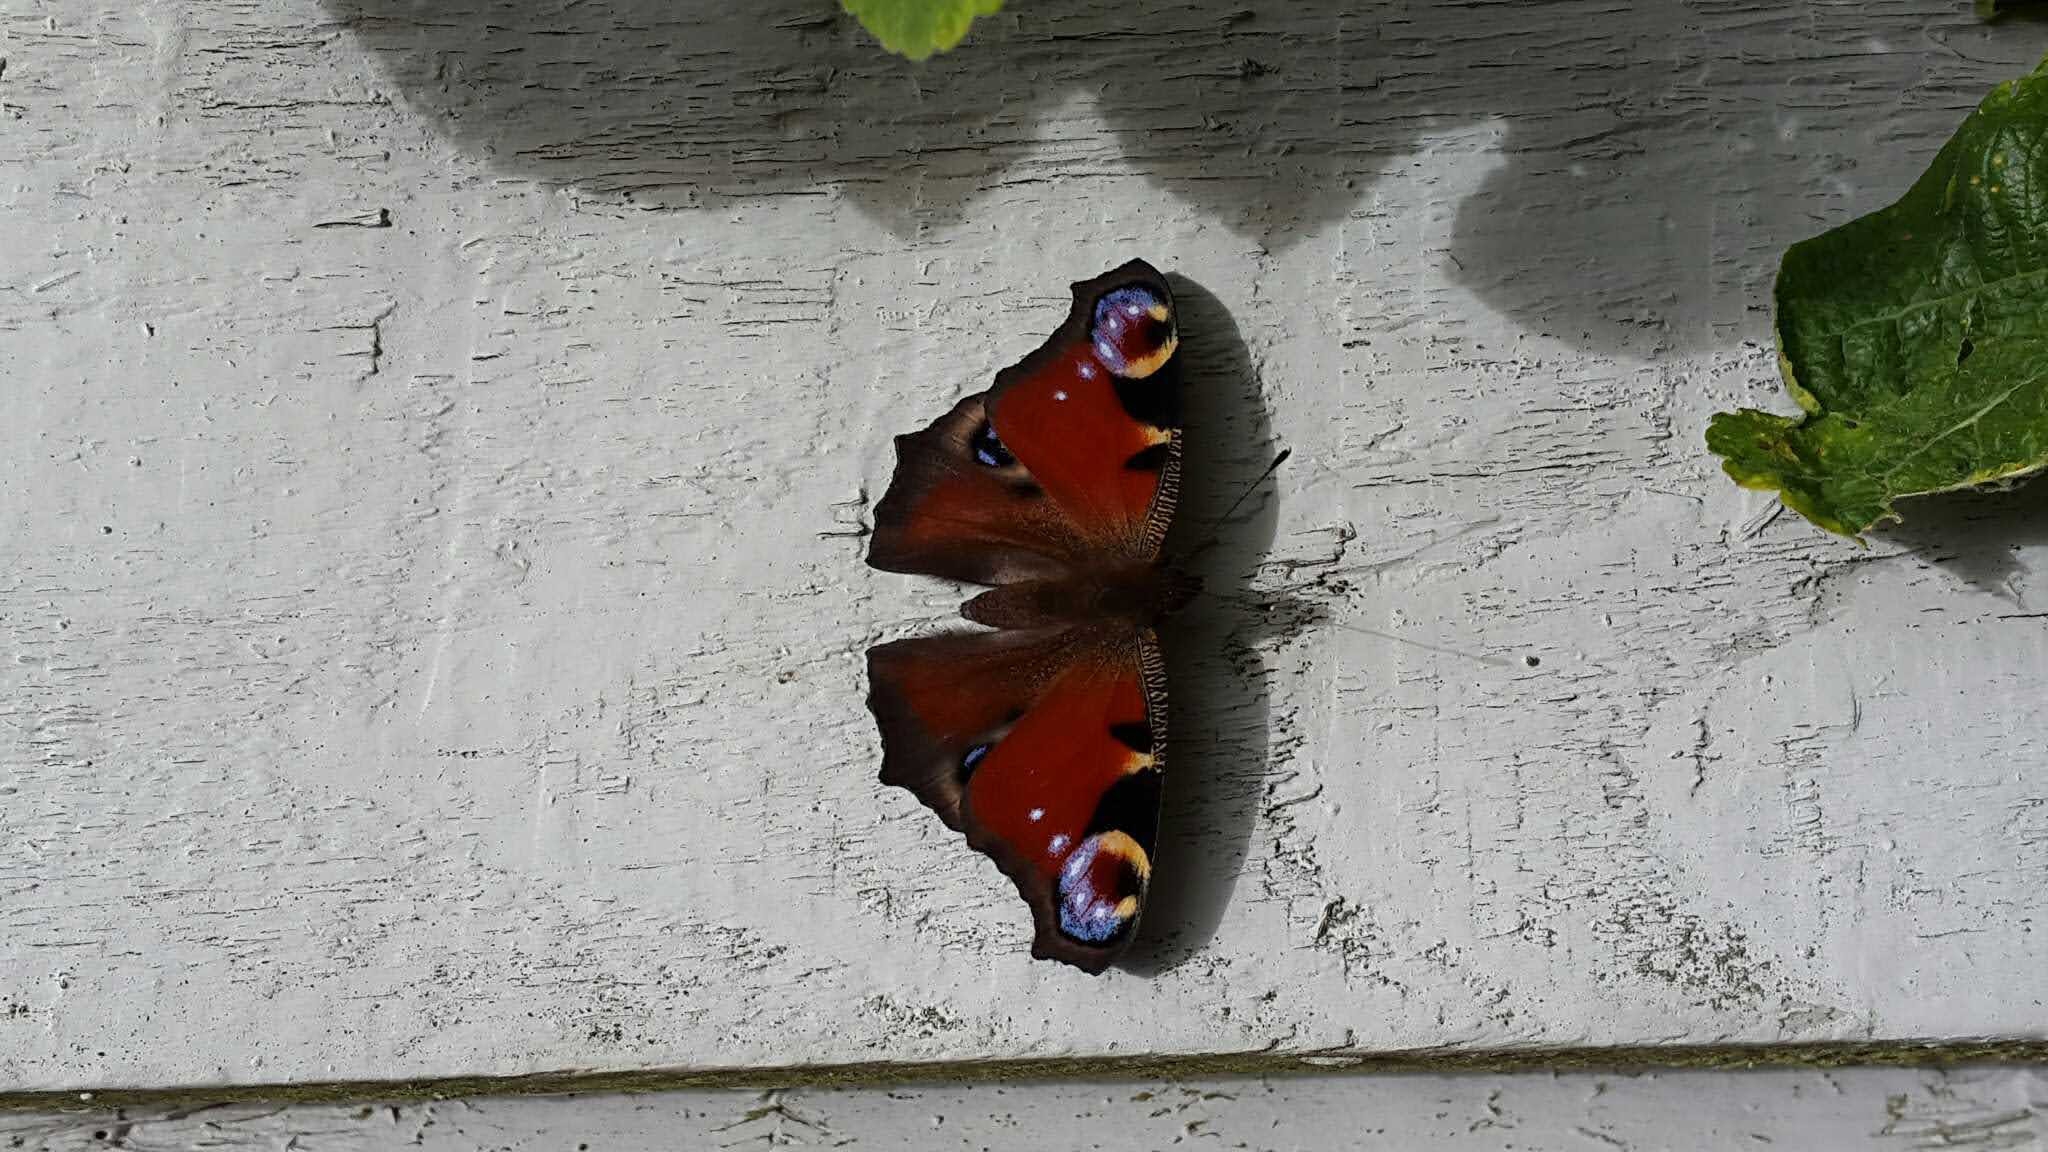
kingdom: Animalia
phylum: Arthropoda
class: Insecta
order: Lepidoptera
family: Nymphalidae
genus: Aglais
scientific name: Aglais io
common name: Dagpåfugleøje
